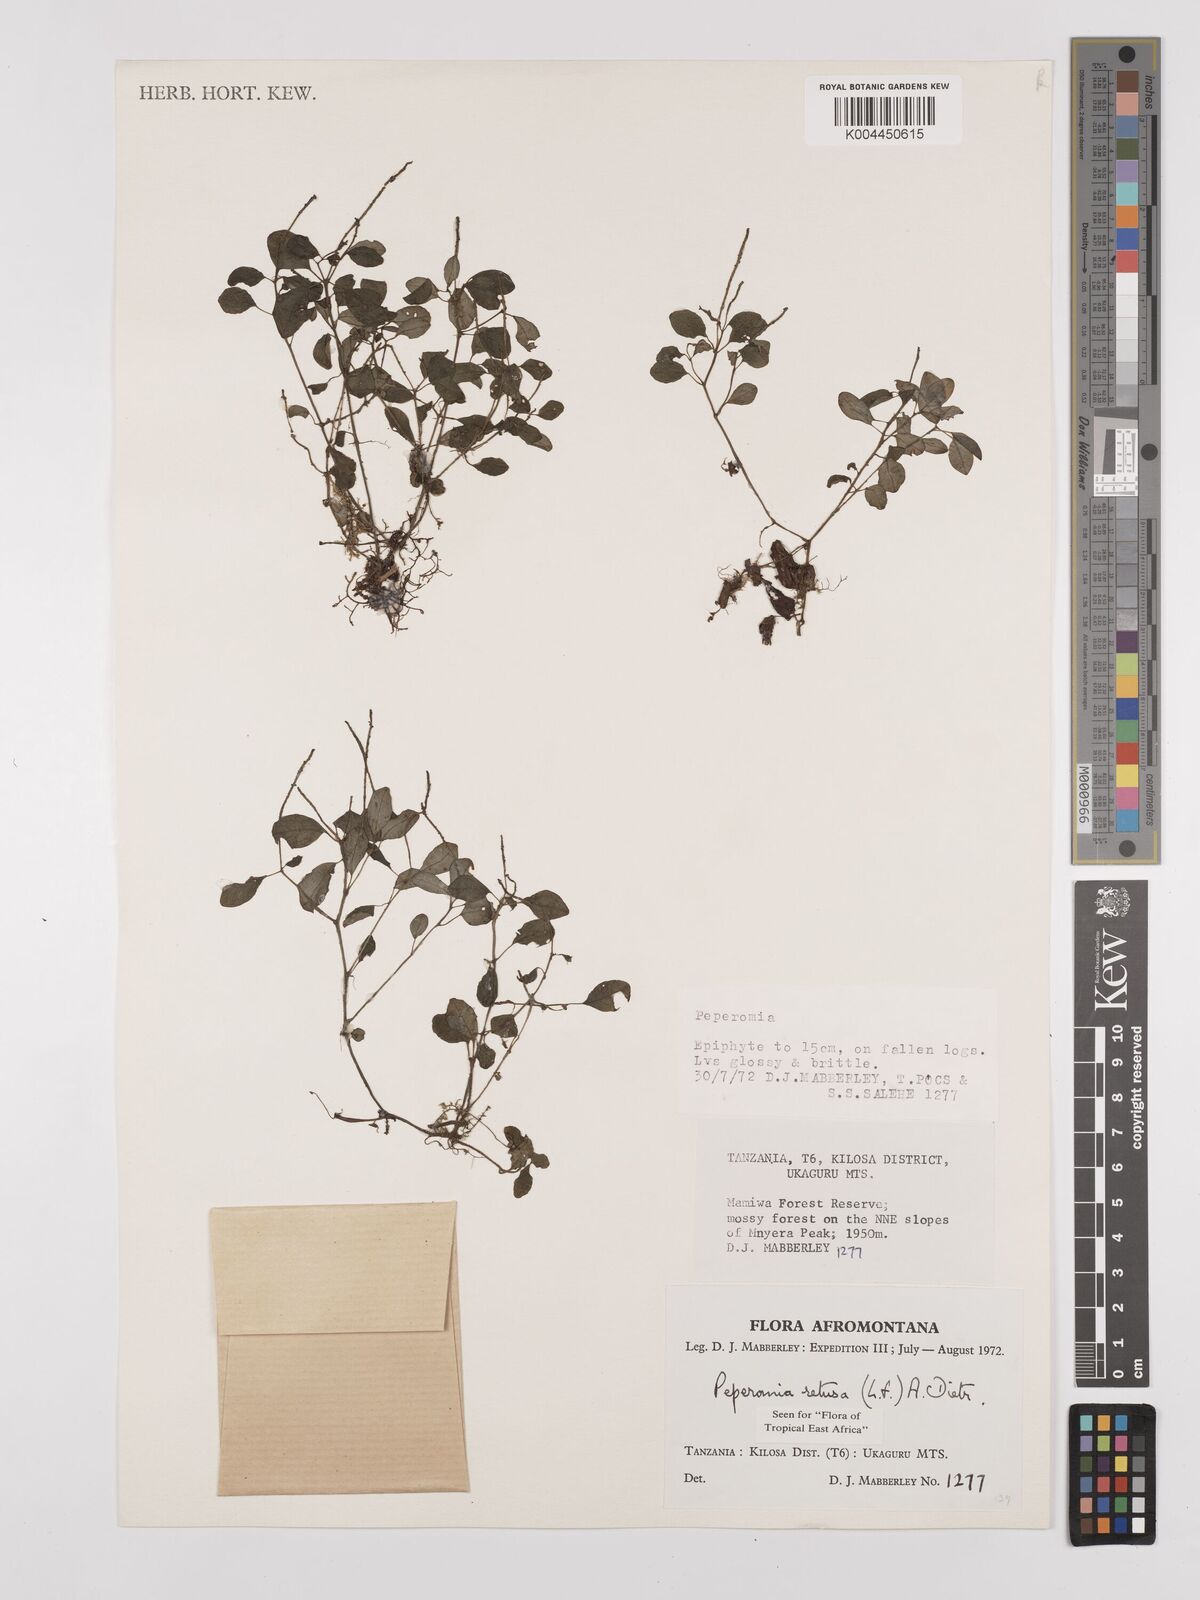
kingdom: Plantae
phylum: Tracheophyta
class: Magnoliopsida
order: Piperales
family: Piperaceae
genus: Peperomia
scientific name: Peperomia retusa
